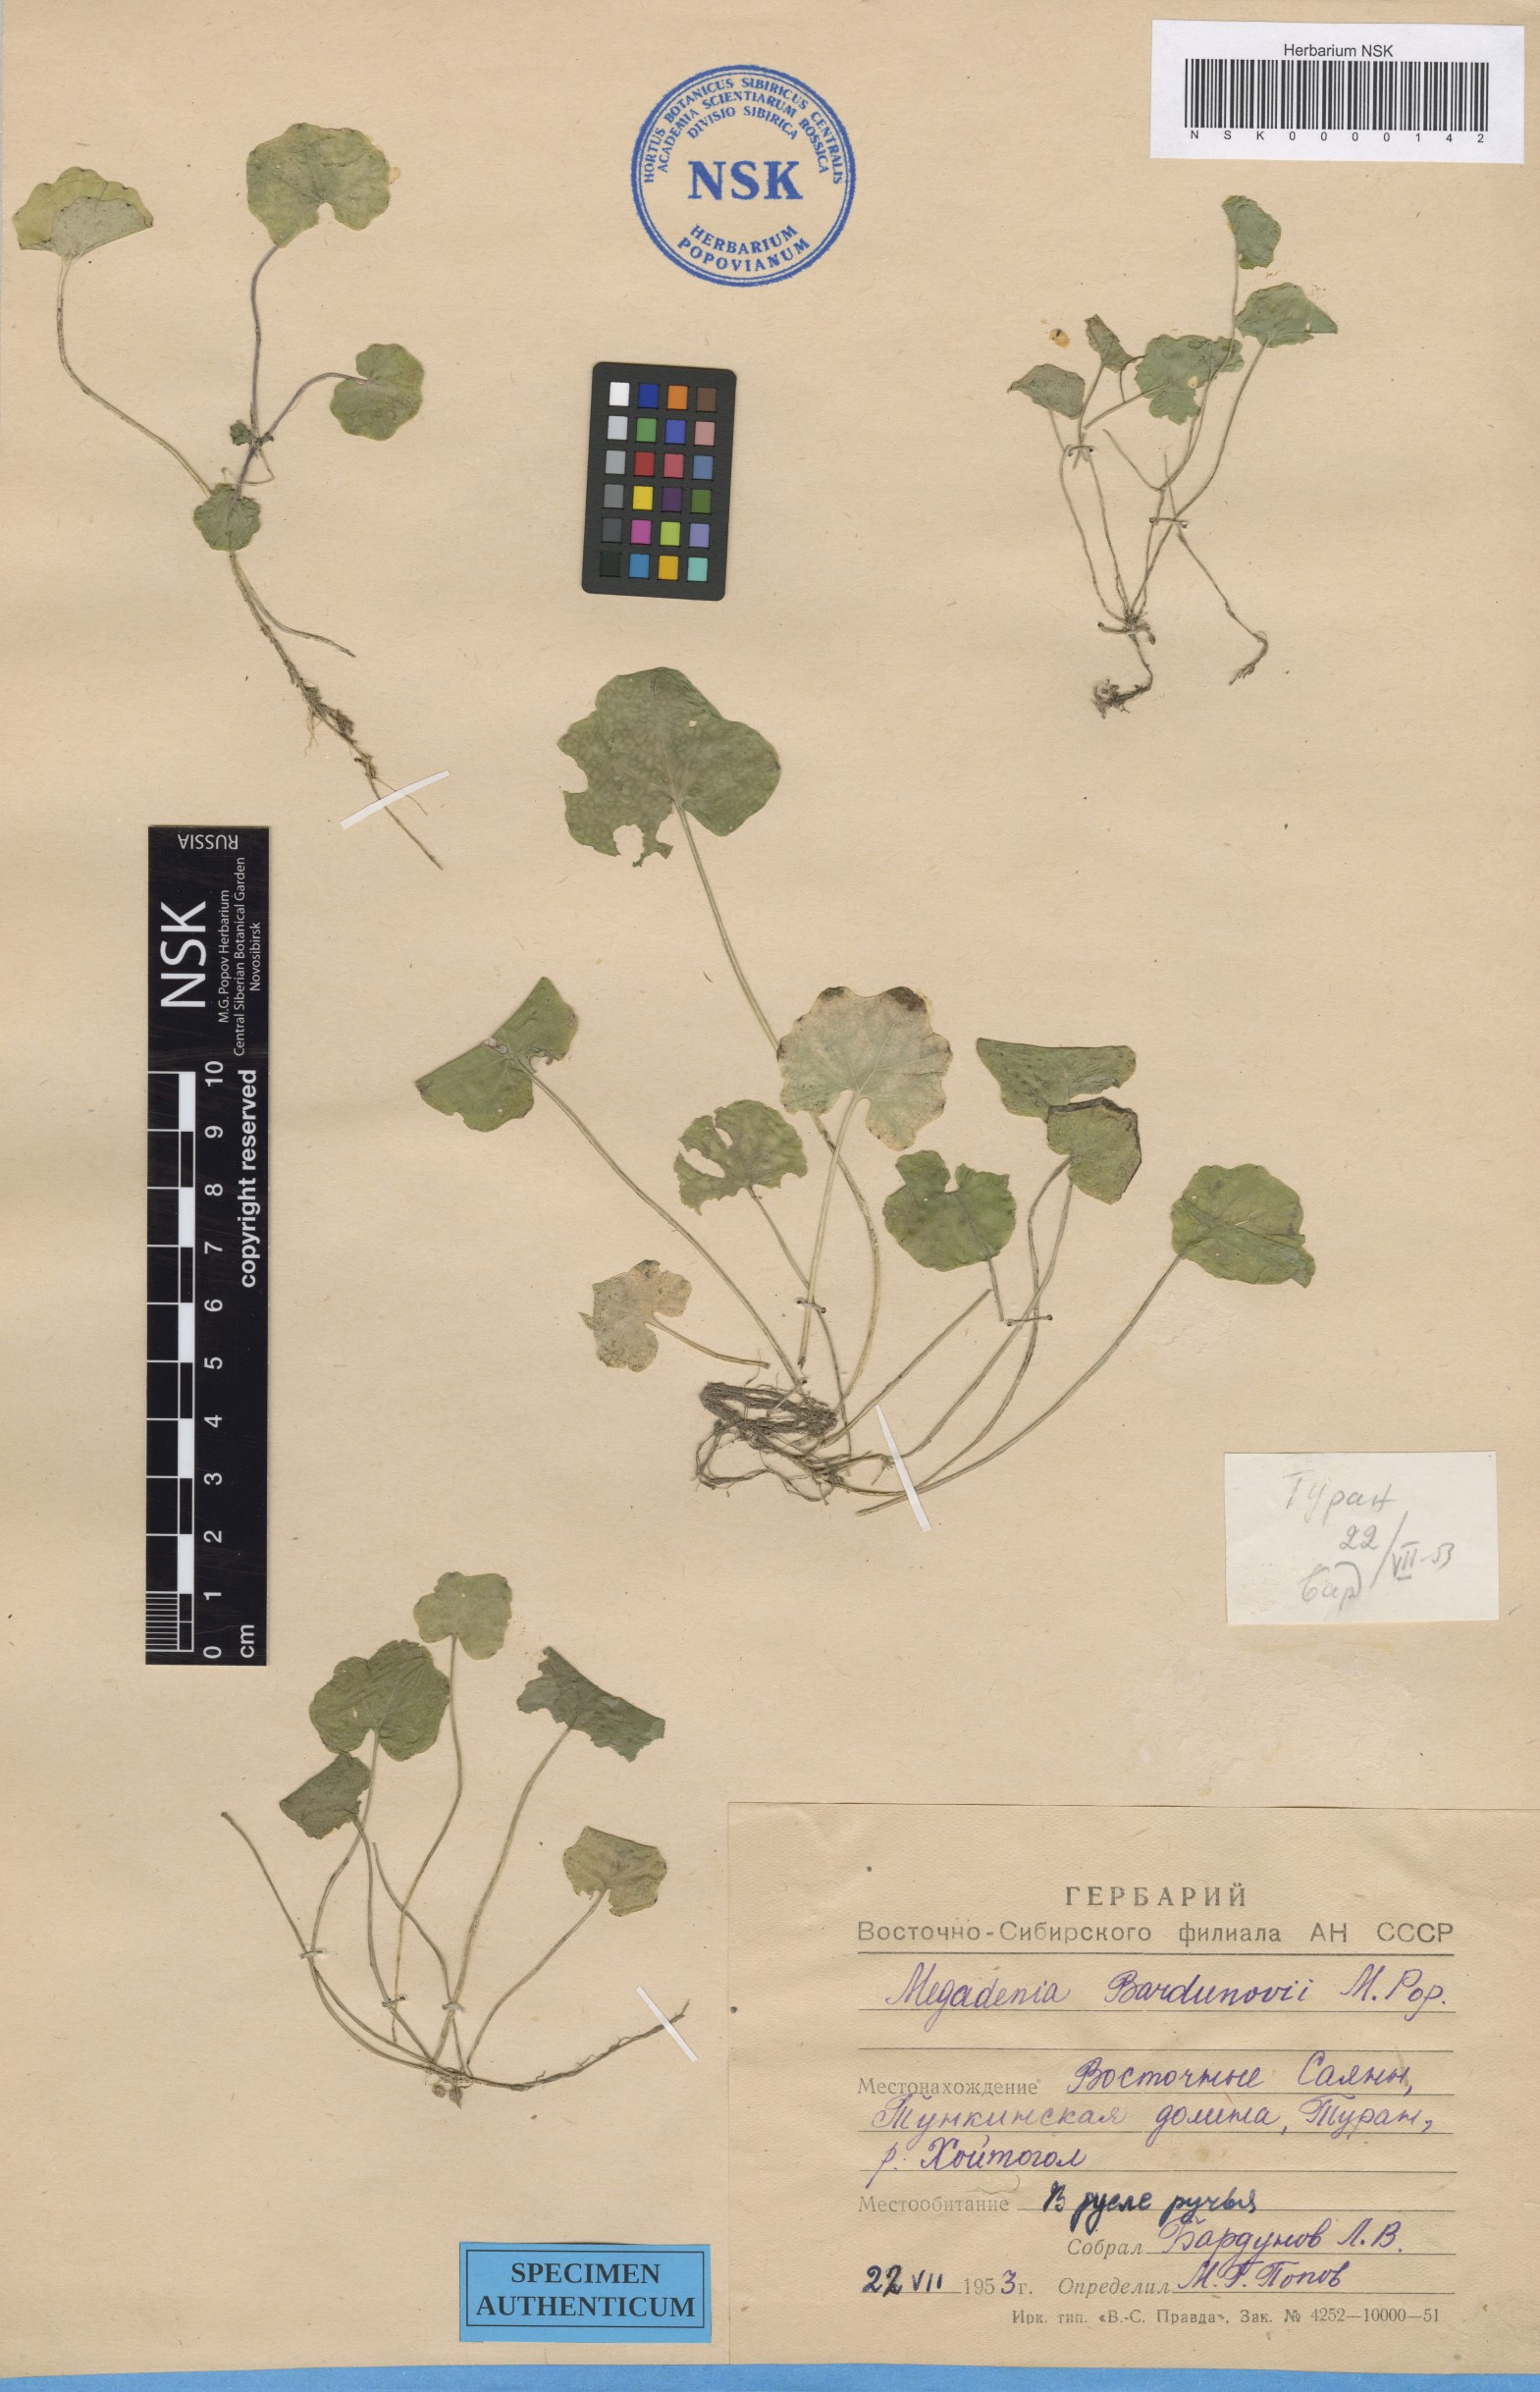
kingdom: Plantae
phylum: Tracheophyta
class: Magnoliopsida
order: Brassicales
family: Brassicaceae
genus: Megadenia
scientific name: Megadenia pygmaea
